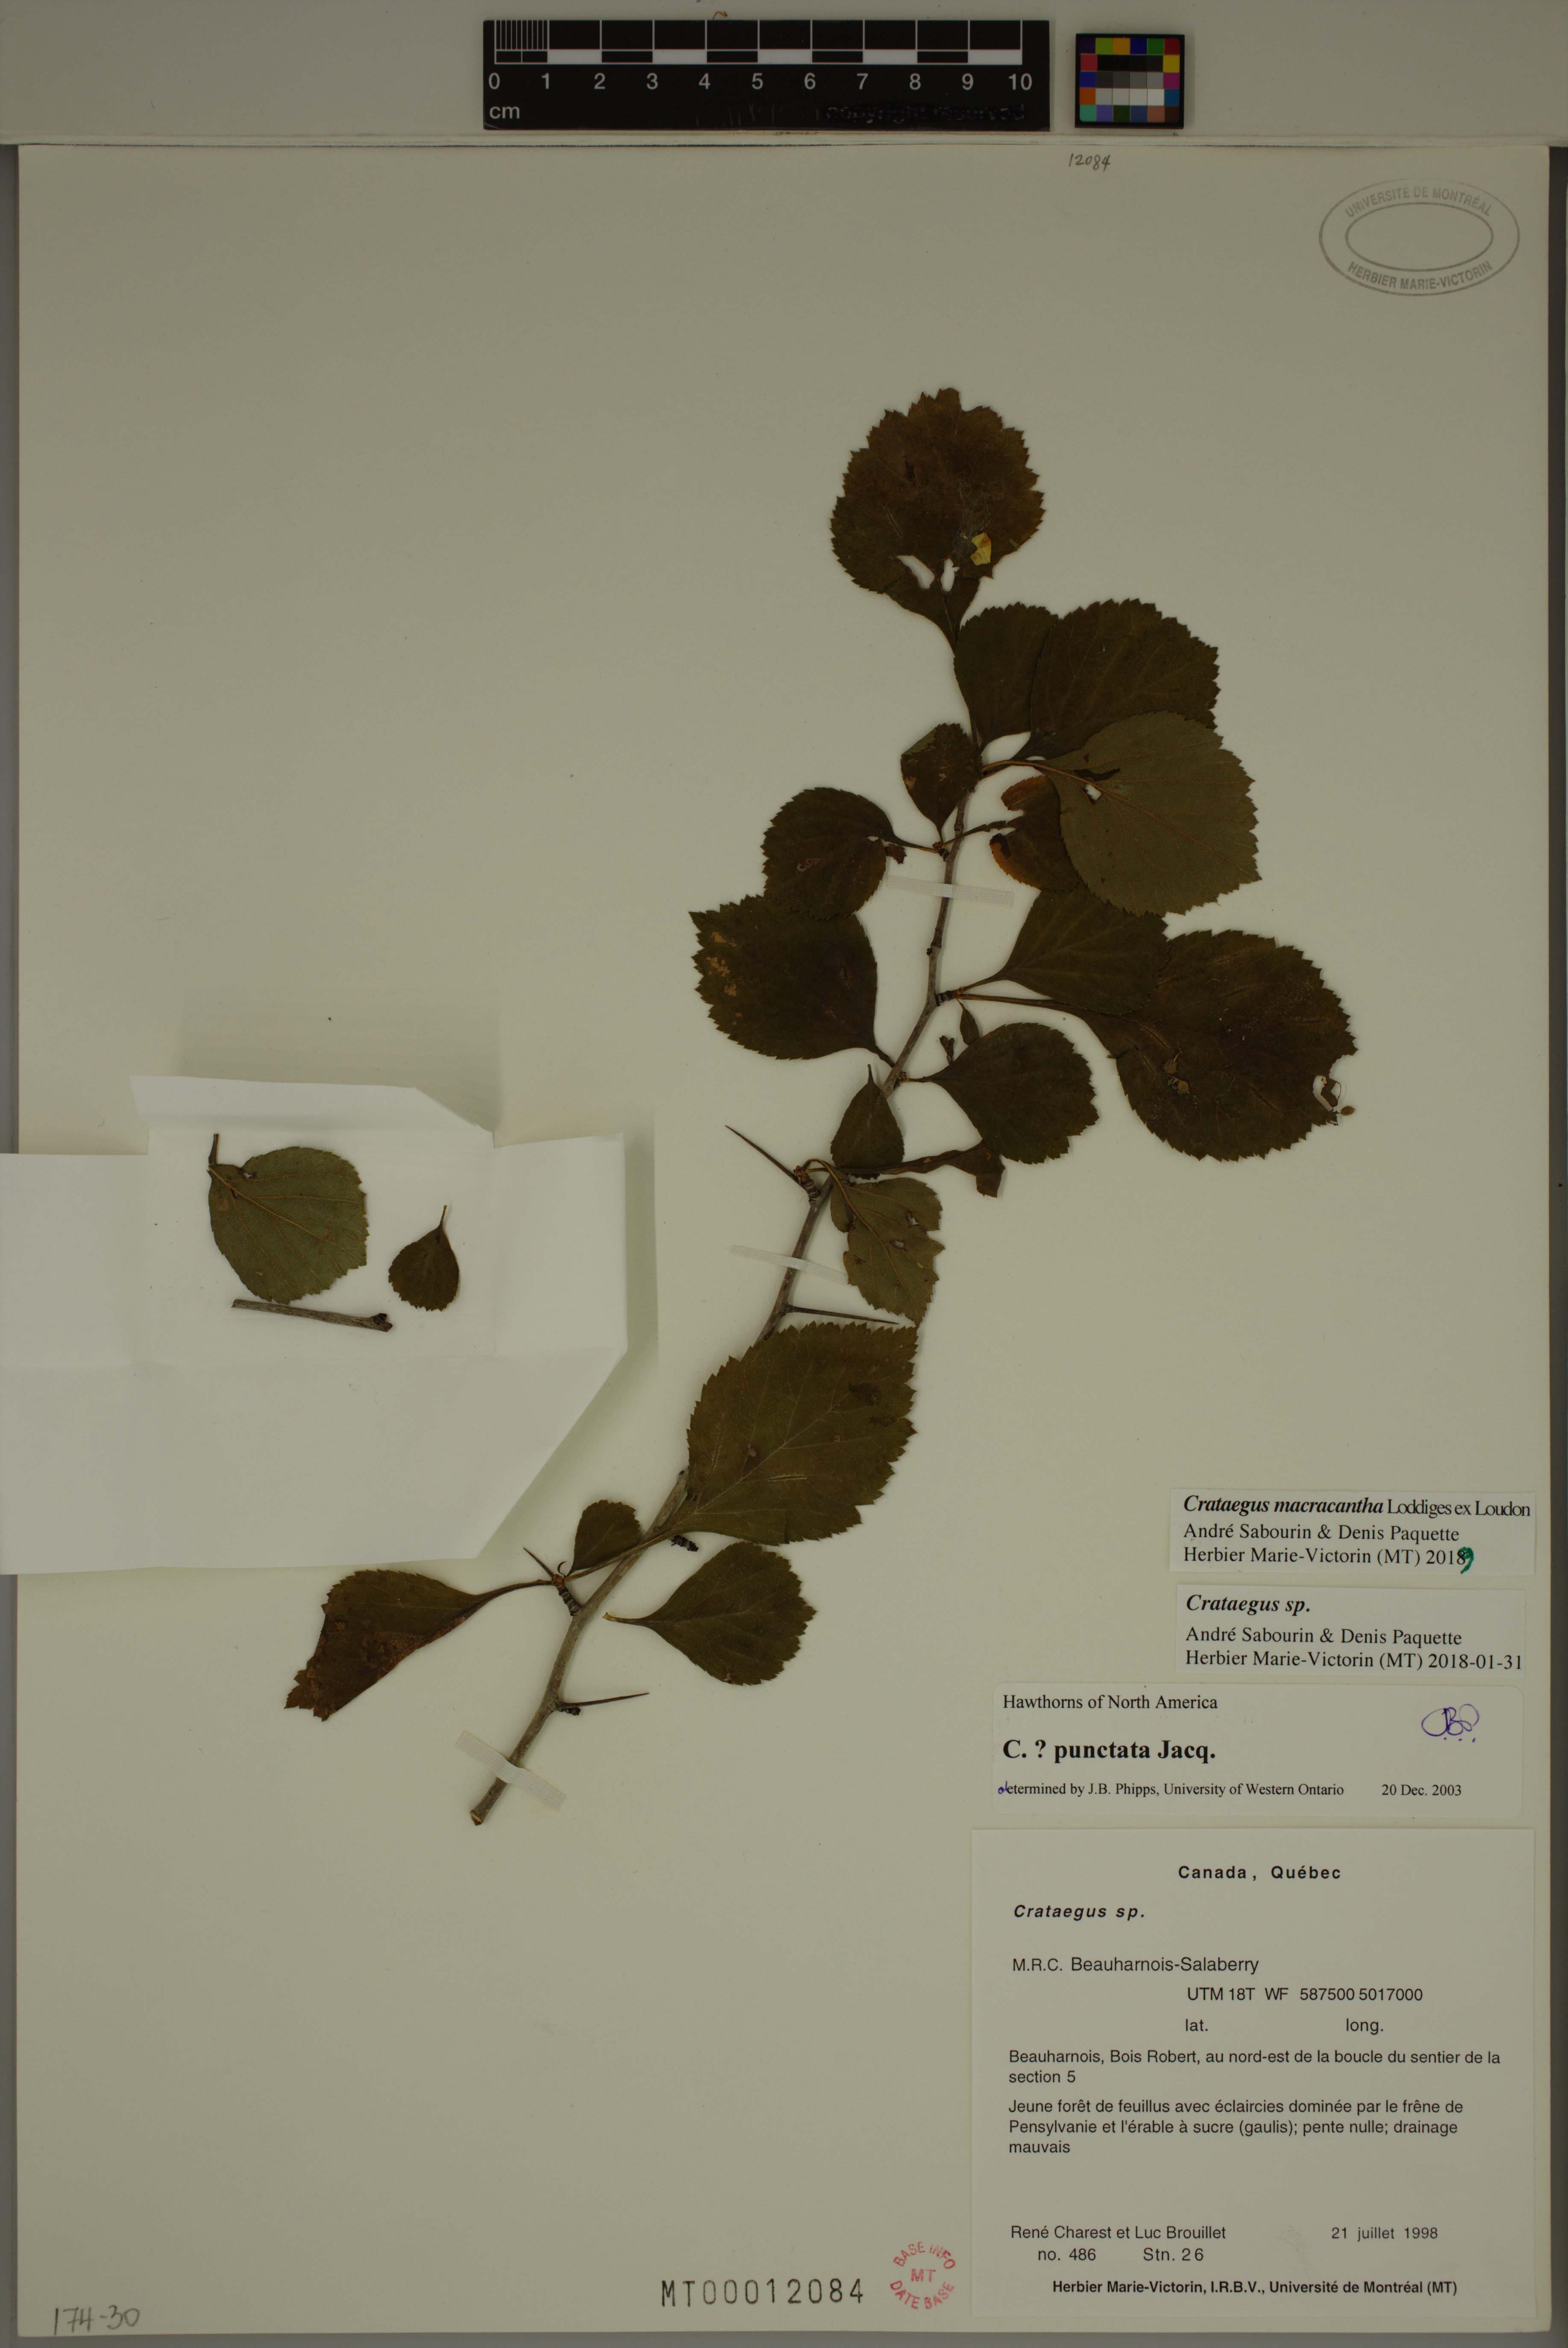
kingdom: Plantae
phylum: Tracheophyta
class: Magnoliopsida
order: Rosales
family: Rosaceae
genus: Crataegus
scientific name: Crataegus macracantha
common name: Large-thorn hawthorn
